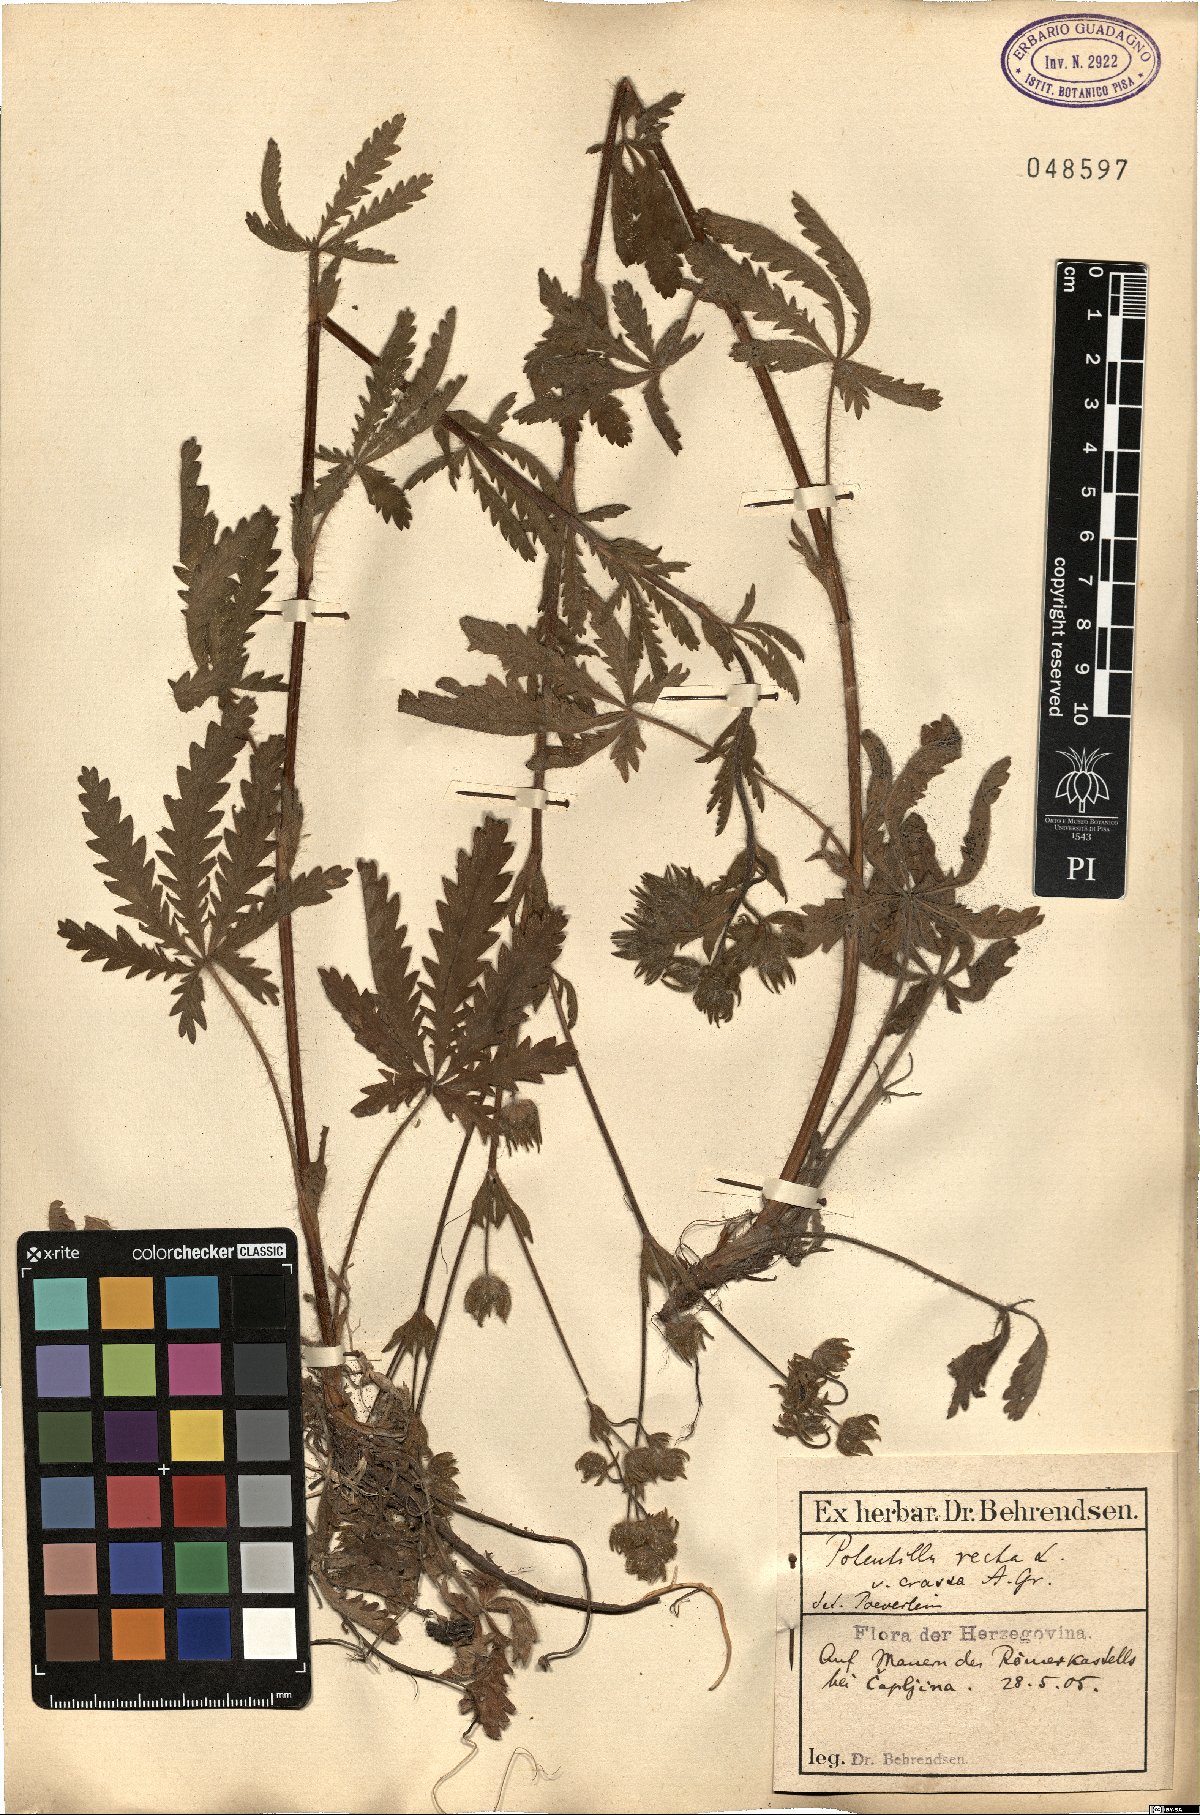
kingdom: Plantae
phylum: Tracheophyta
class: Magnoliopsida
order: Rosales
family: Rosaceae
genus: Potentilla
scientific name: Potentilla recta
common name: Sulphur cinquefoil
